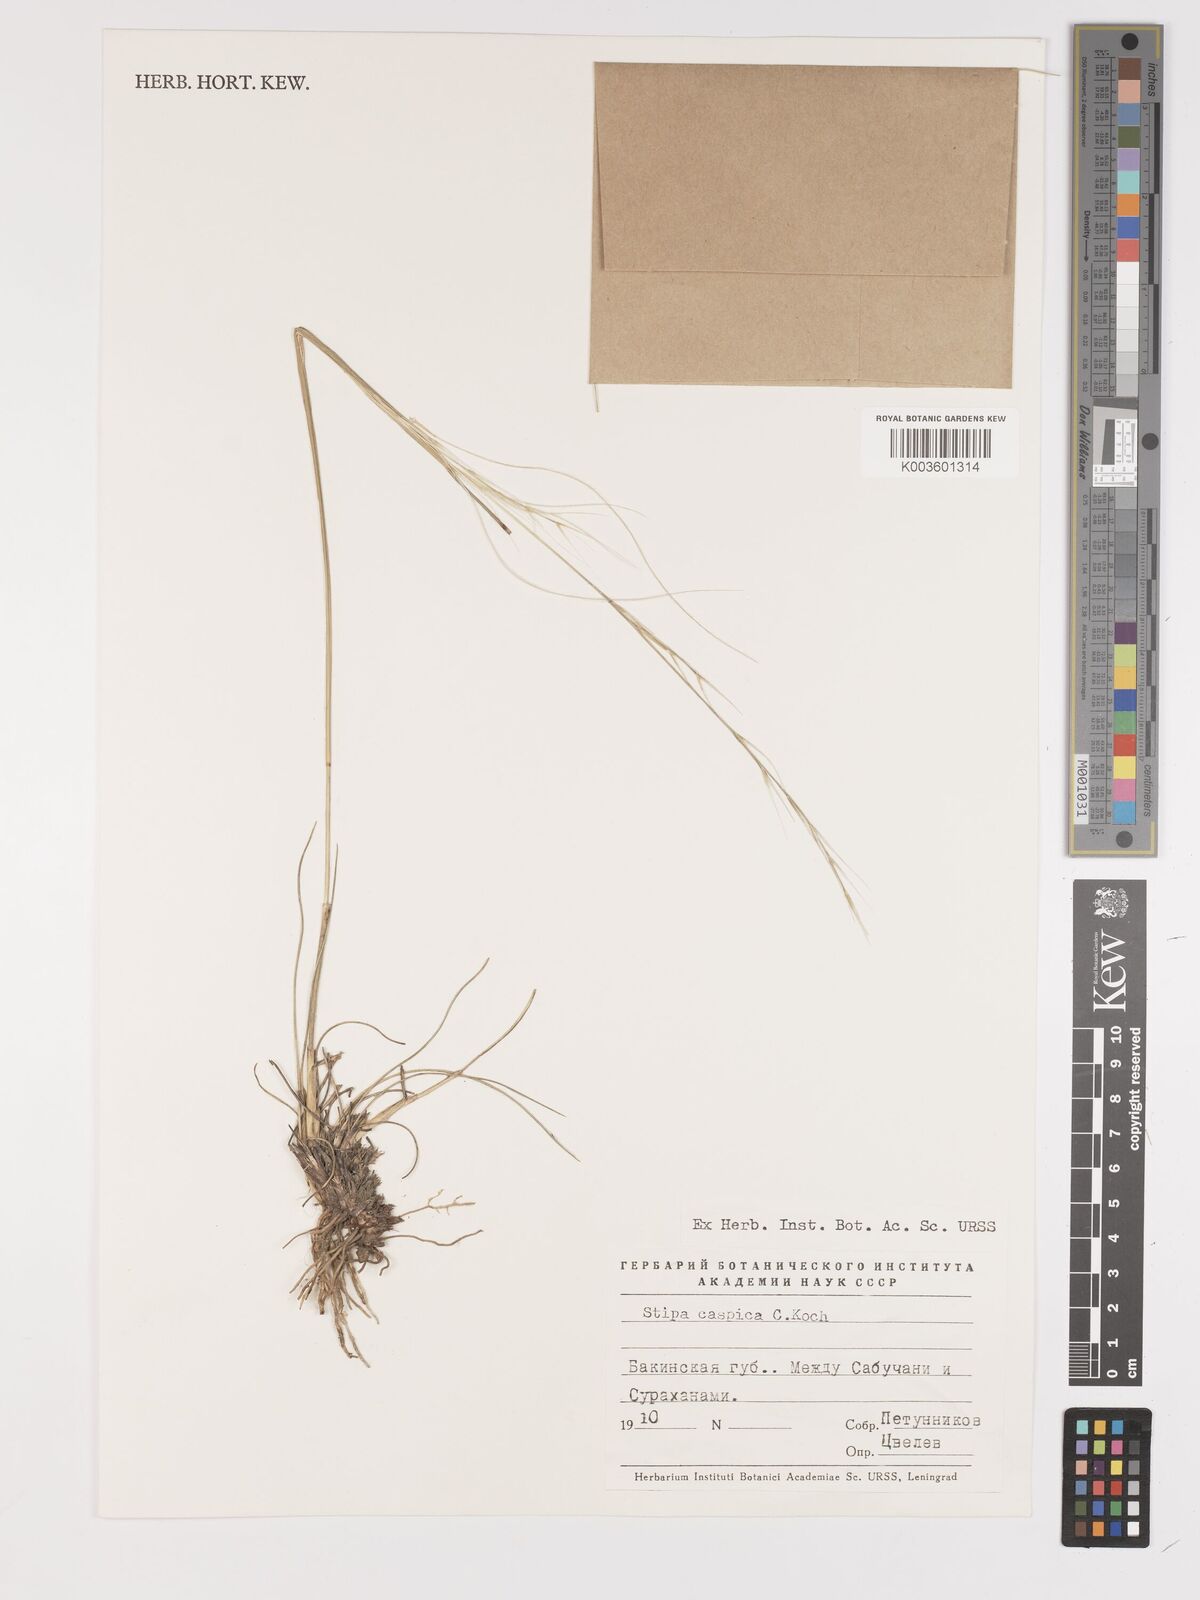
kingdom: Plantae
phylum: Tracheophyta
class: Liliopsida
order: Poales
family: Poaceae
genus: Stipa
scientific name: Stipa
